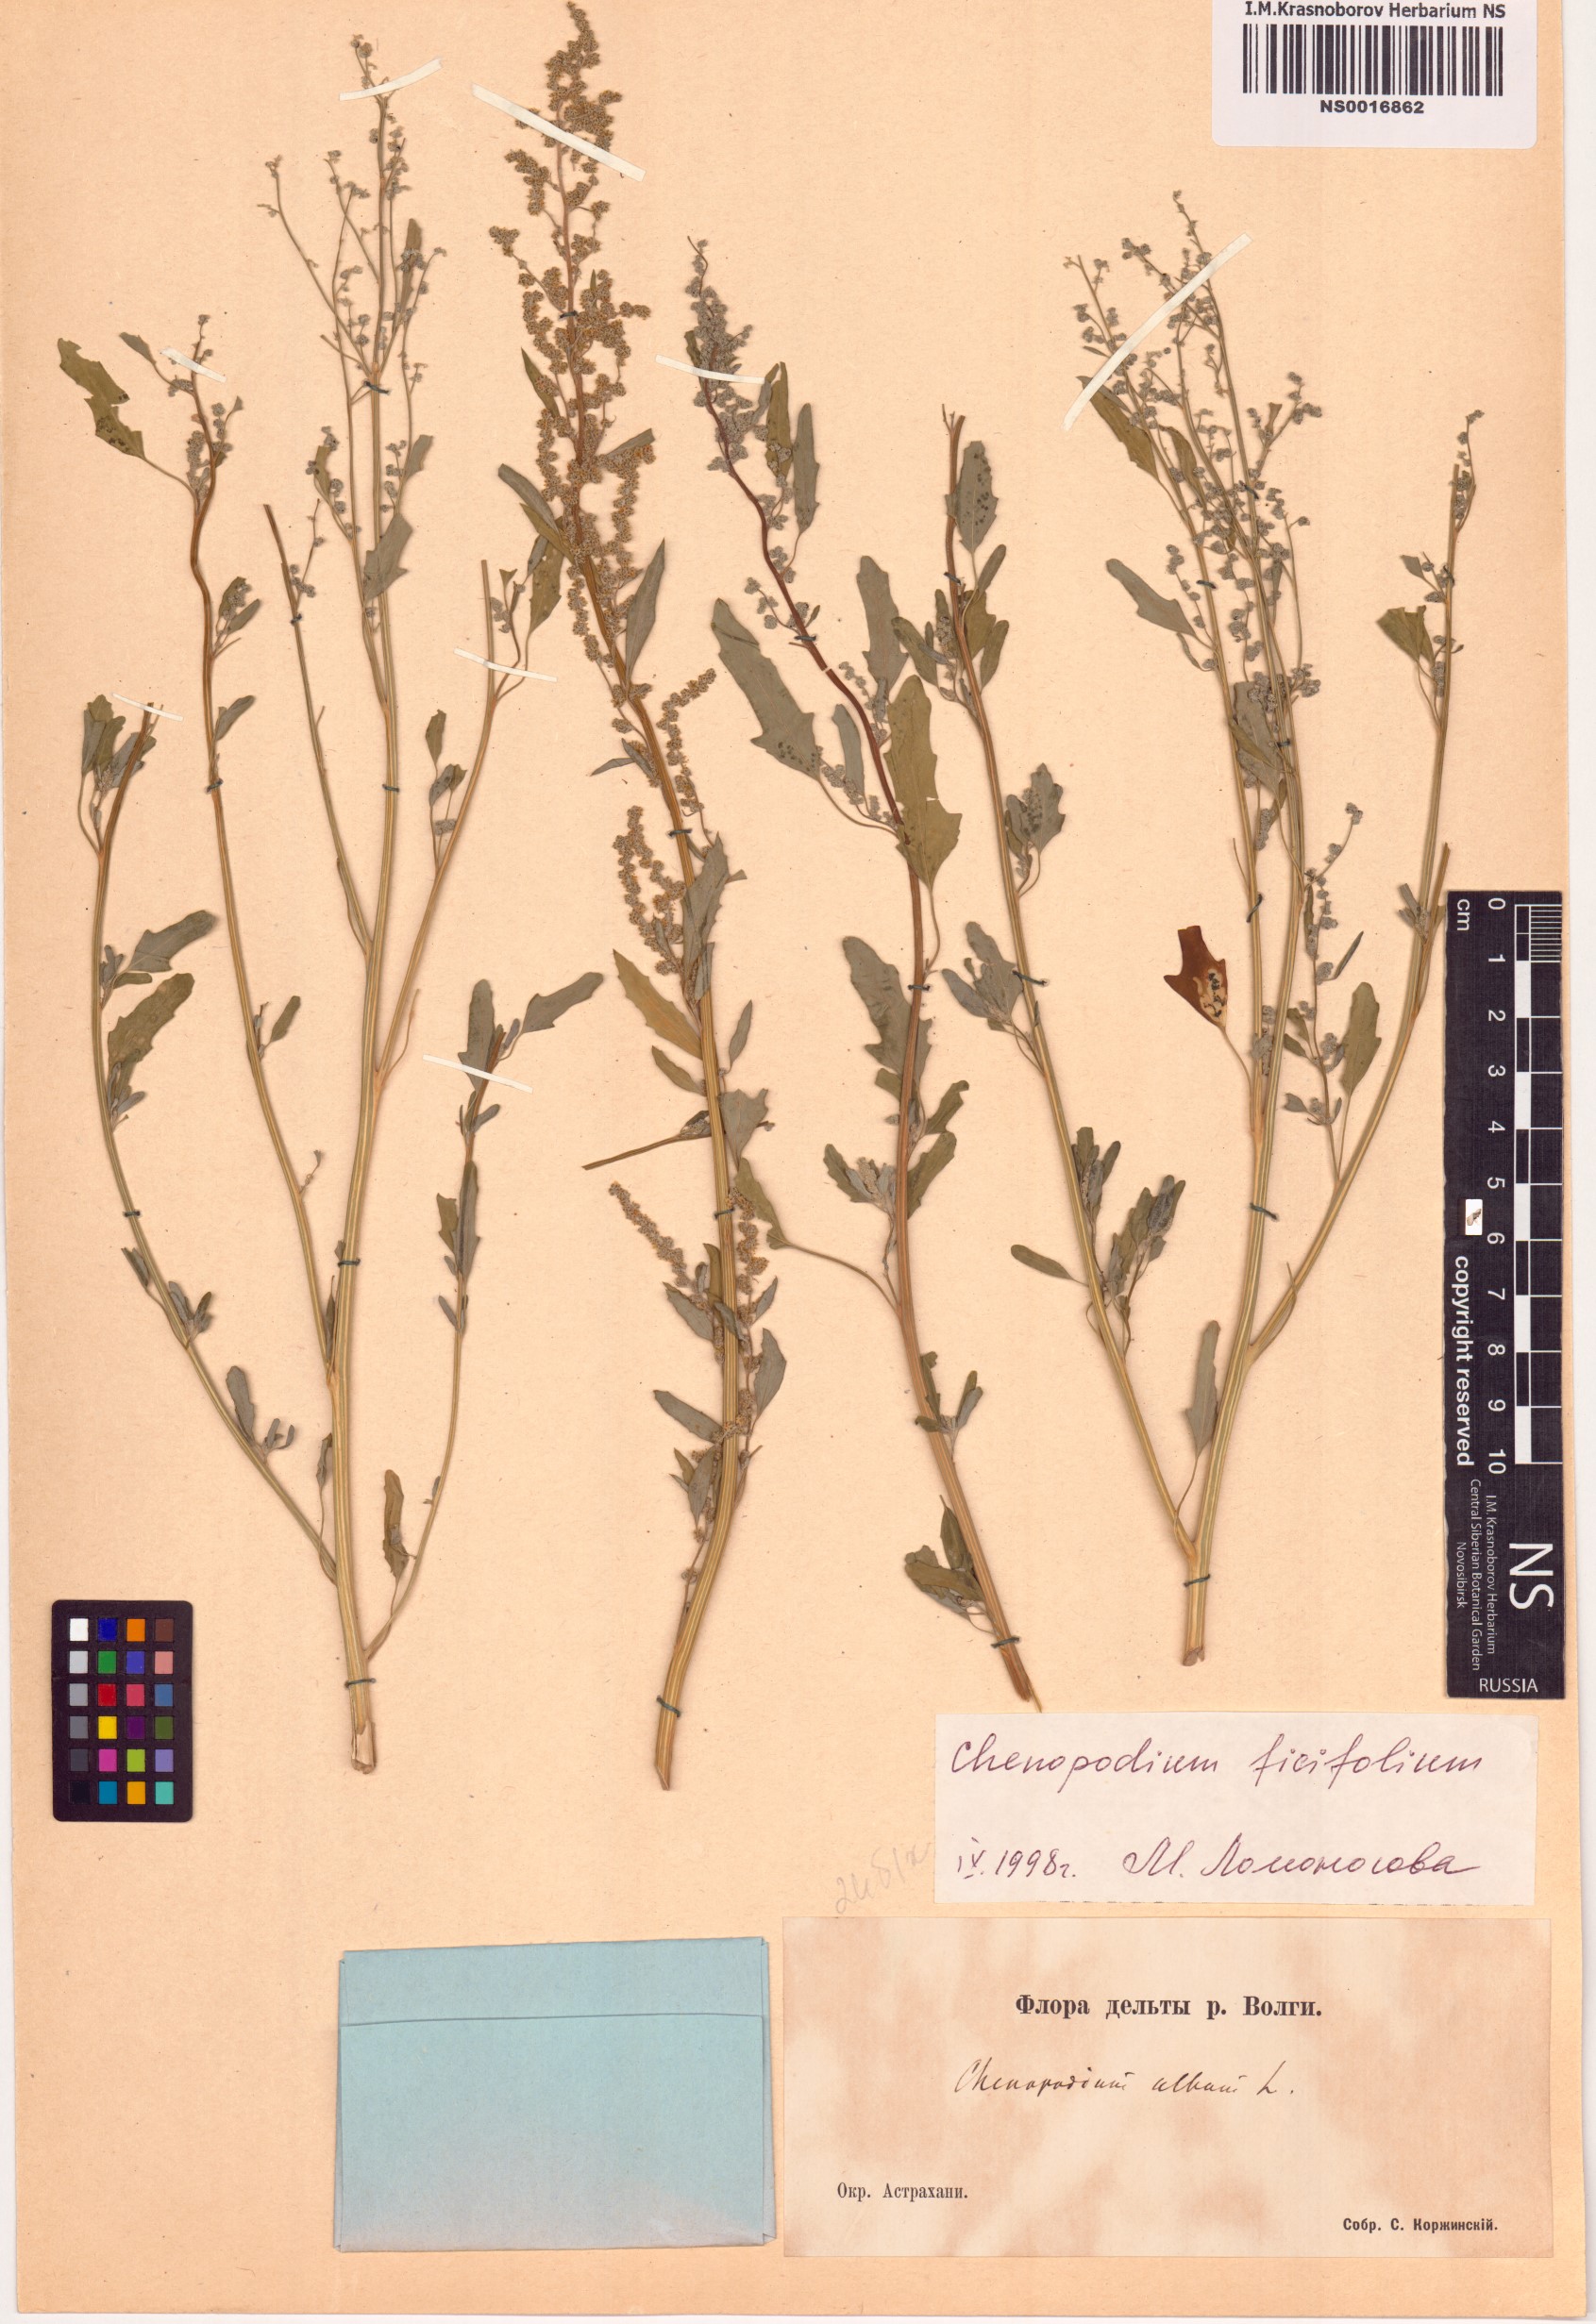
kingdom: Plantae
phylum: Tracheophyta
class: Magnoliopsida
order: Caryophyllales
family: Amaranthaceae
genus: Chenopodium
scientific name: Chenopodium ficifolium
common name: Fig-leaved goosefoot
